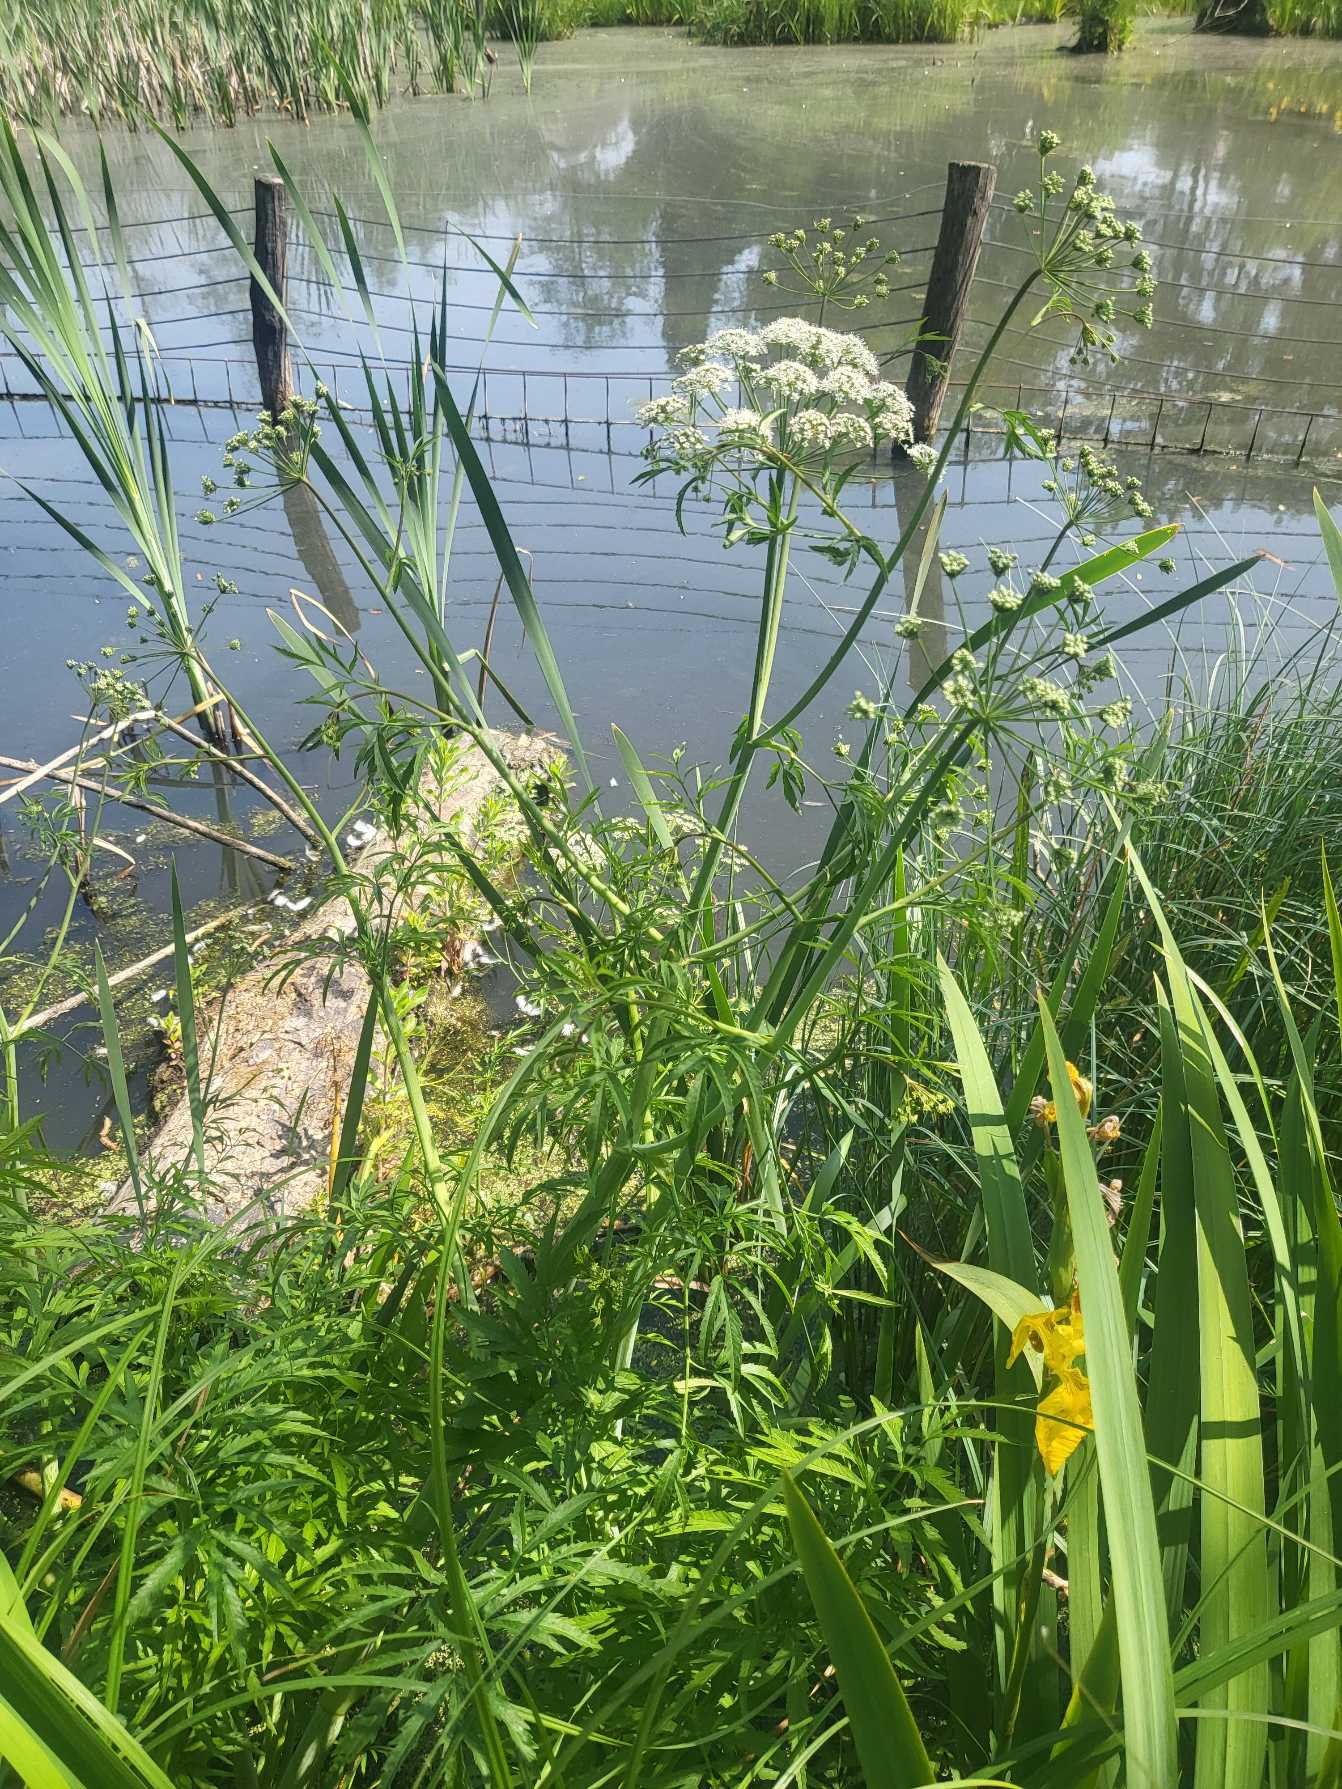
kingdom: Plantae
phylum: Tracheophyta
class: Magnoliopsida
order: Apiales
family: Apiaceae
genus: Cicuta
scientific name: Cicuta virosa
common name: Gifttyde
